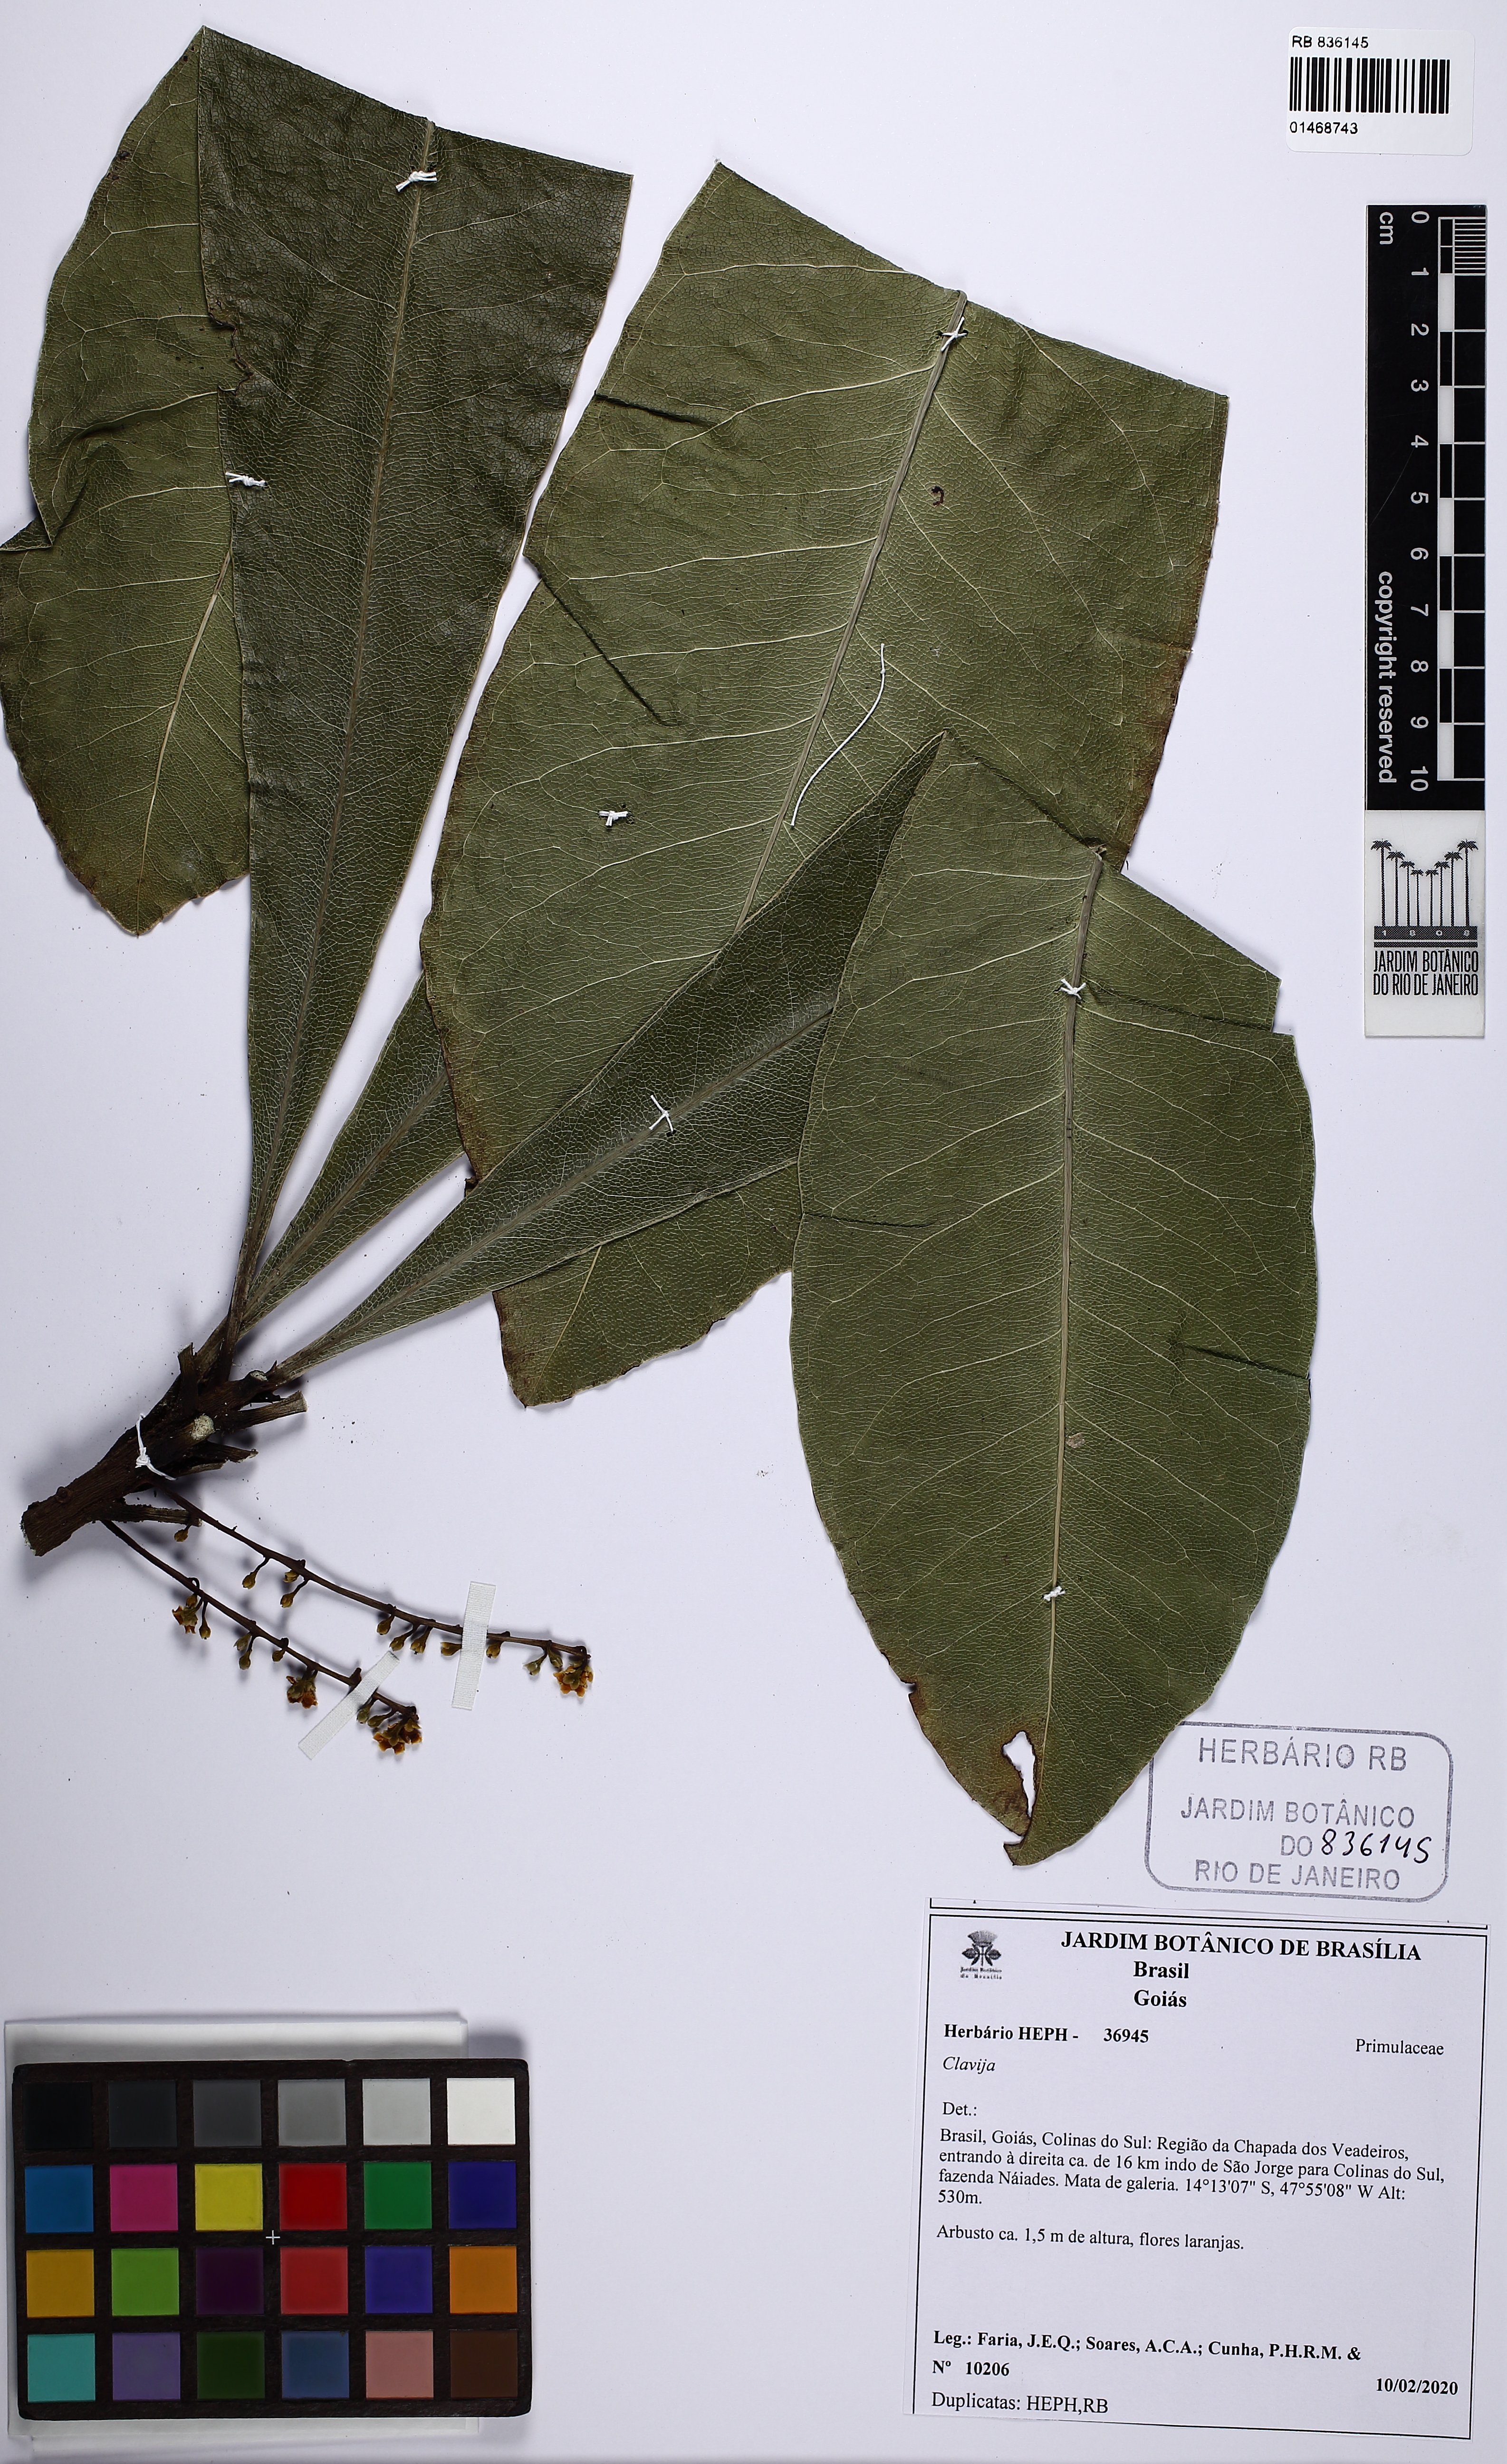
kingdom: Plantae
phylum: Tracheophyta
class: Magnoliopsida
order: Ericales
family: Primulaceae
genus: Clavija
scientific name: Clavija
